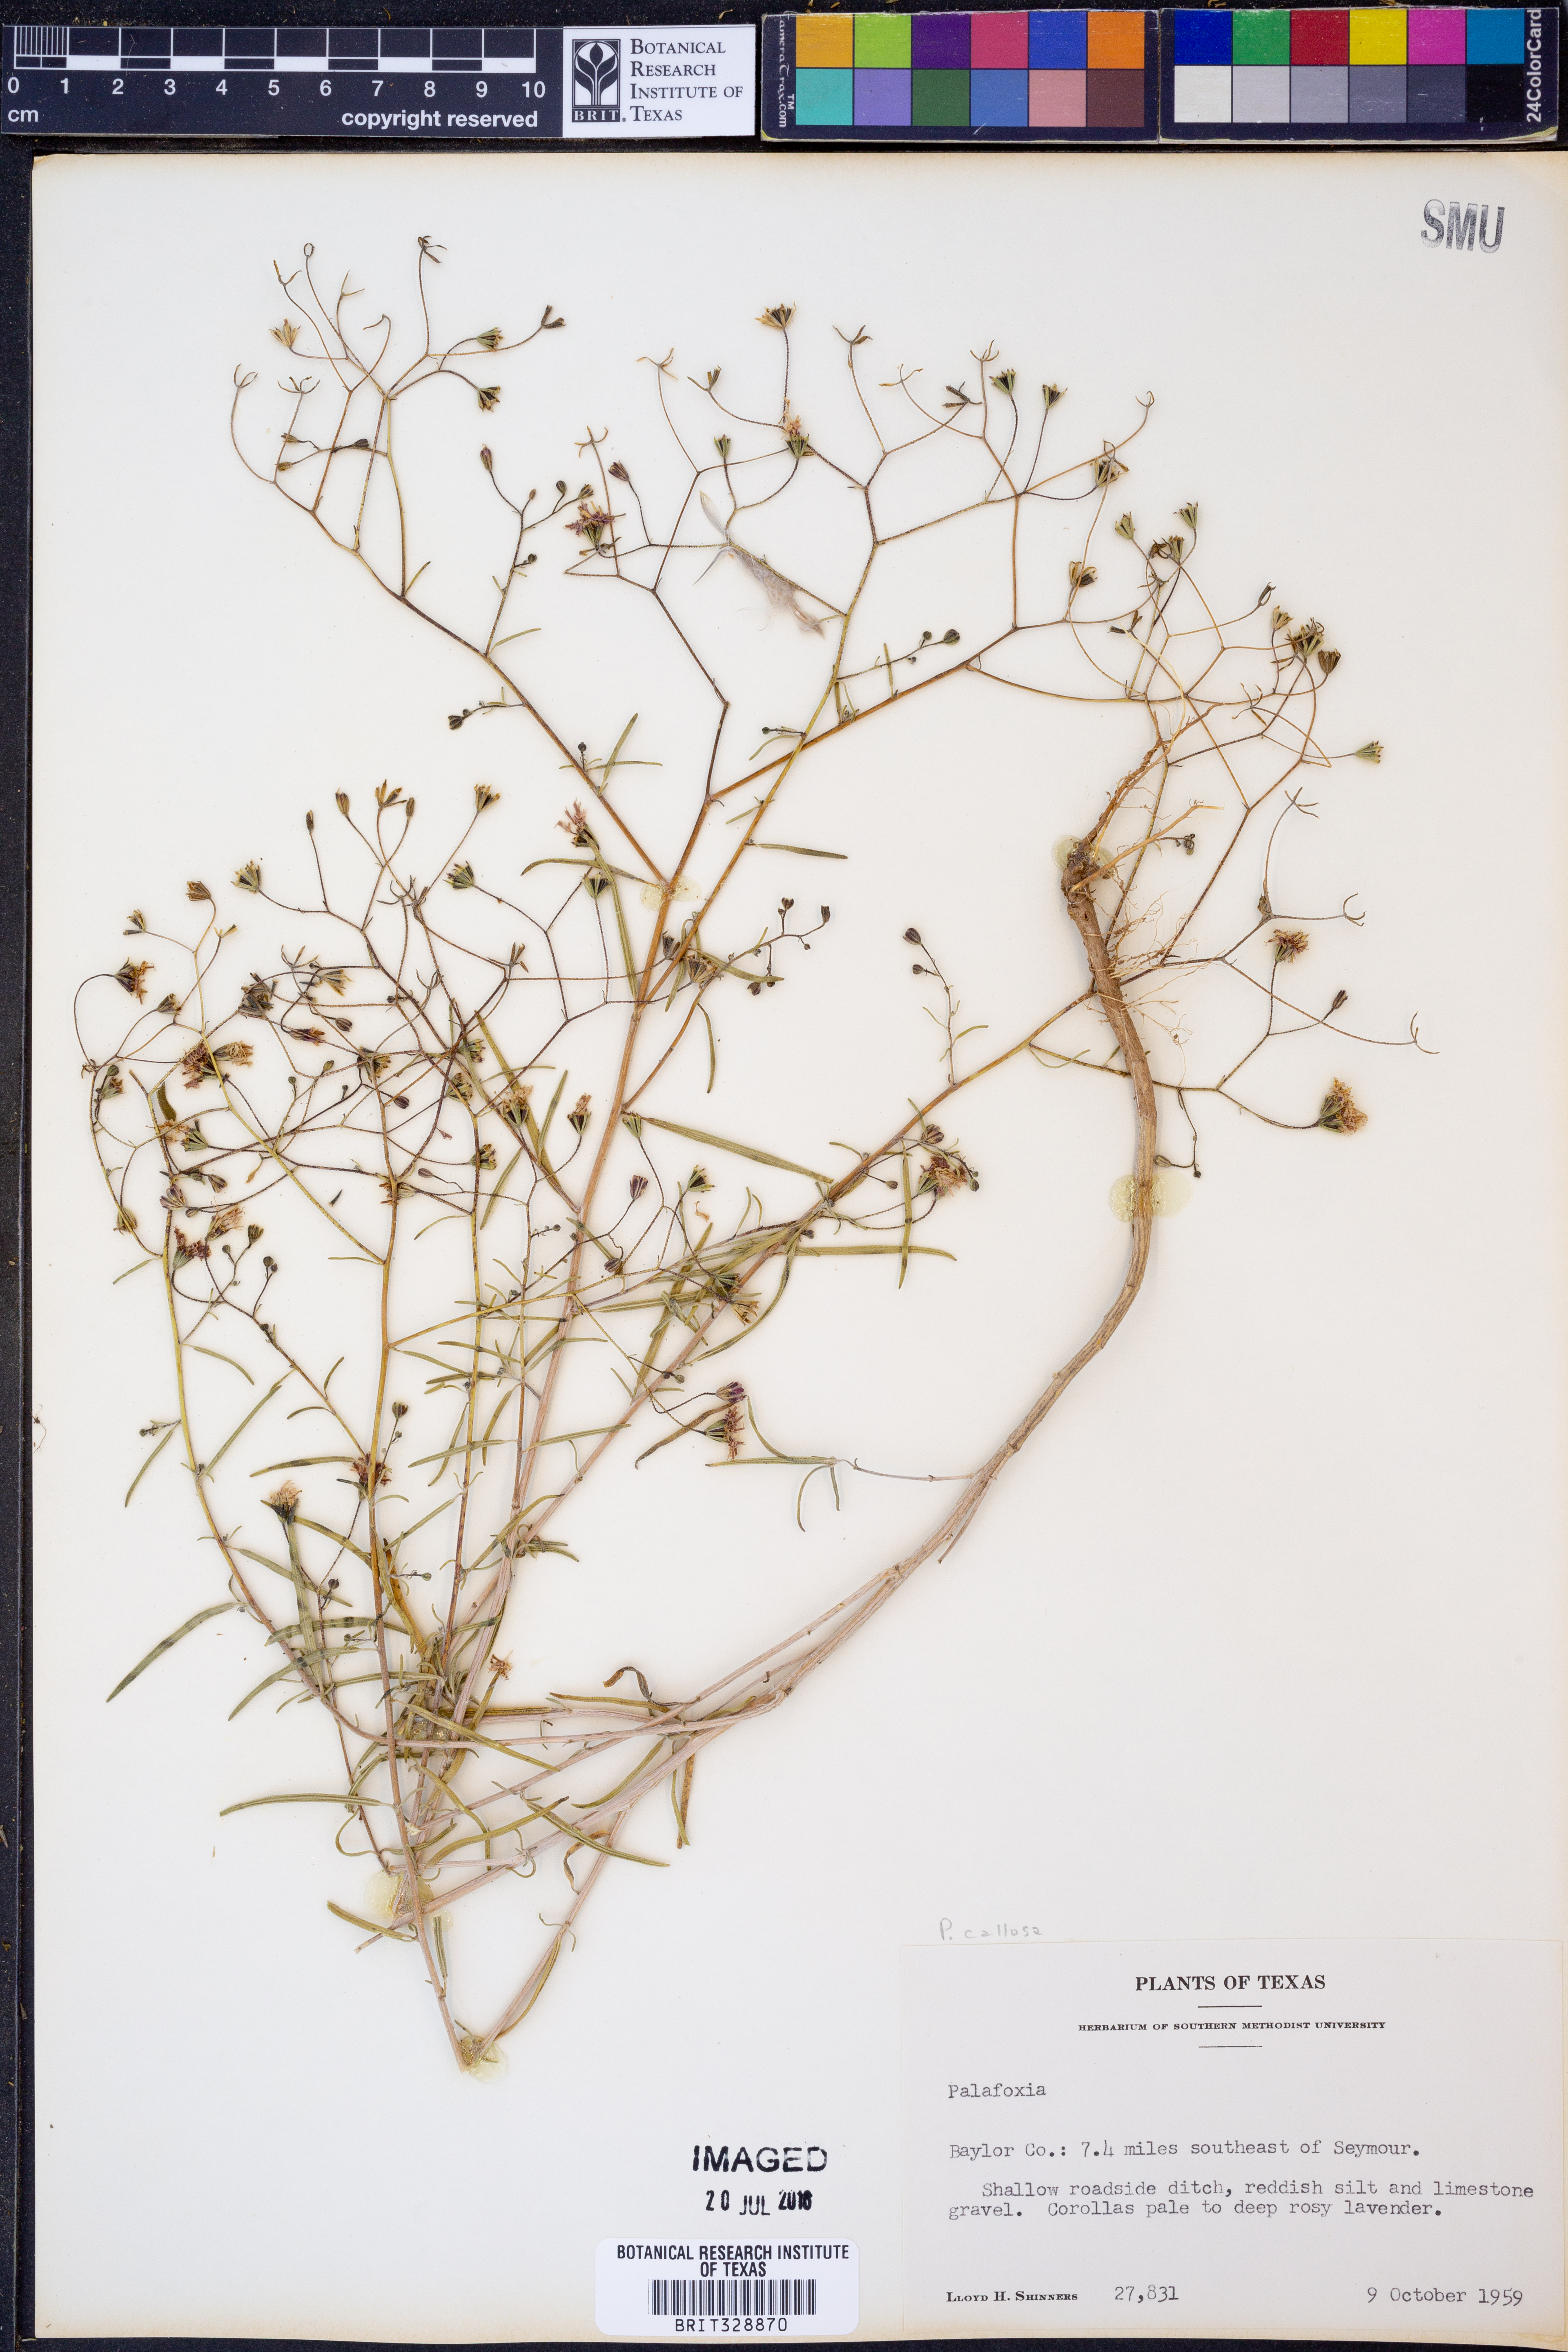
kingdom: Plantae
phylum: Tracheophyta
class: Magnoliopsida
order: Asterales
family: Asteraceae
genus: Palafoxia
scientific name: Palafoxia callosa
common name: Small palafox
